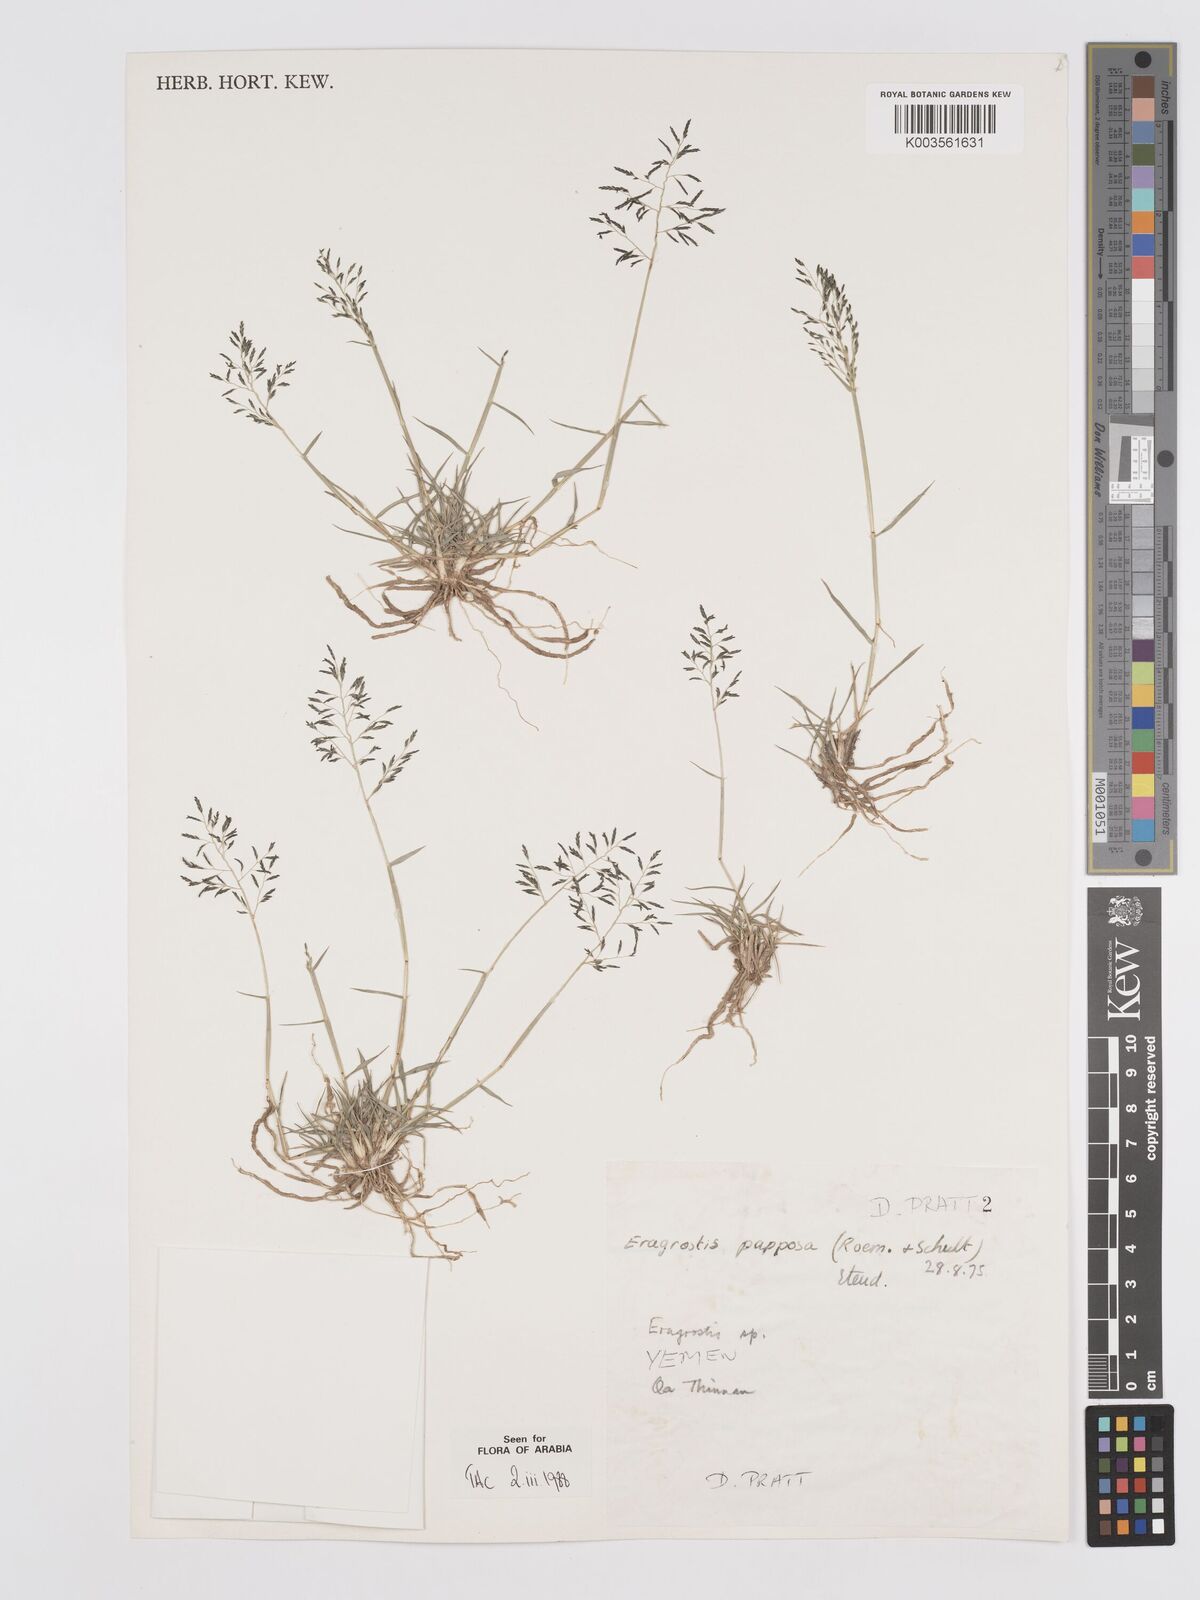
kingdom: Plantae
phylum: Tracheophyta
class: Liliopsida
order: Poales
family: Poaceae
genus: Eragrostis
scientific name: Eragrostis papposa
